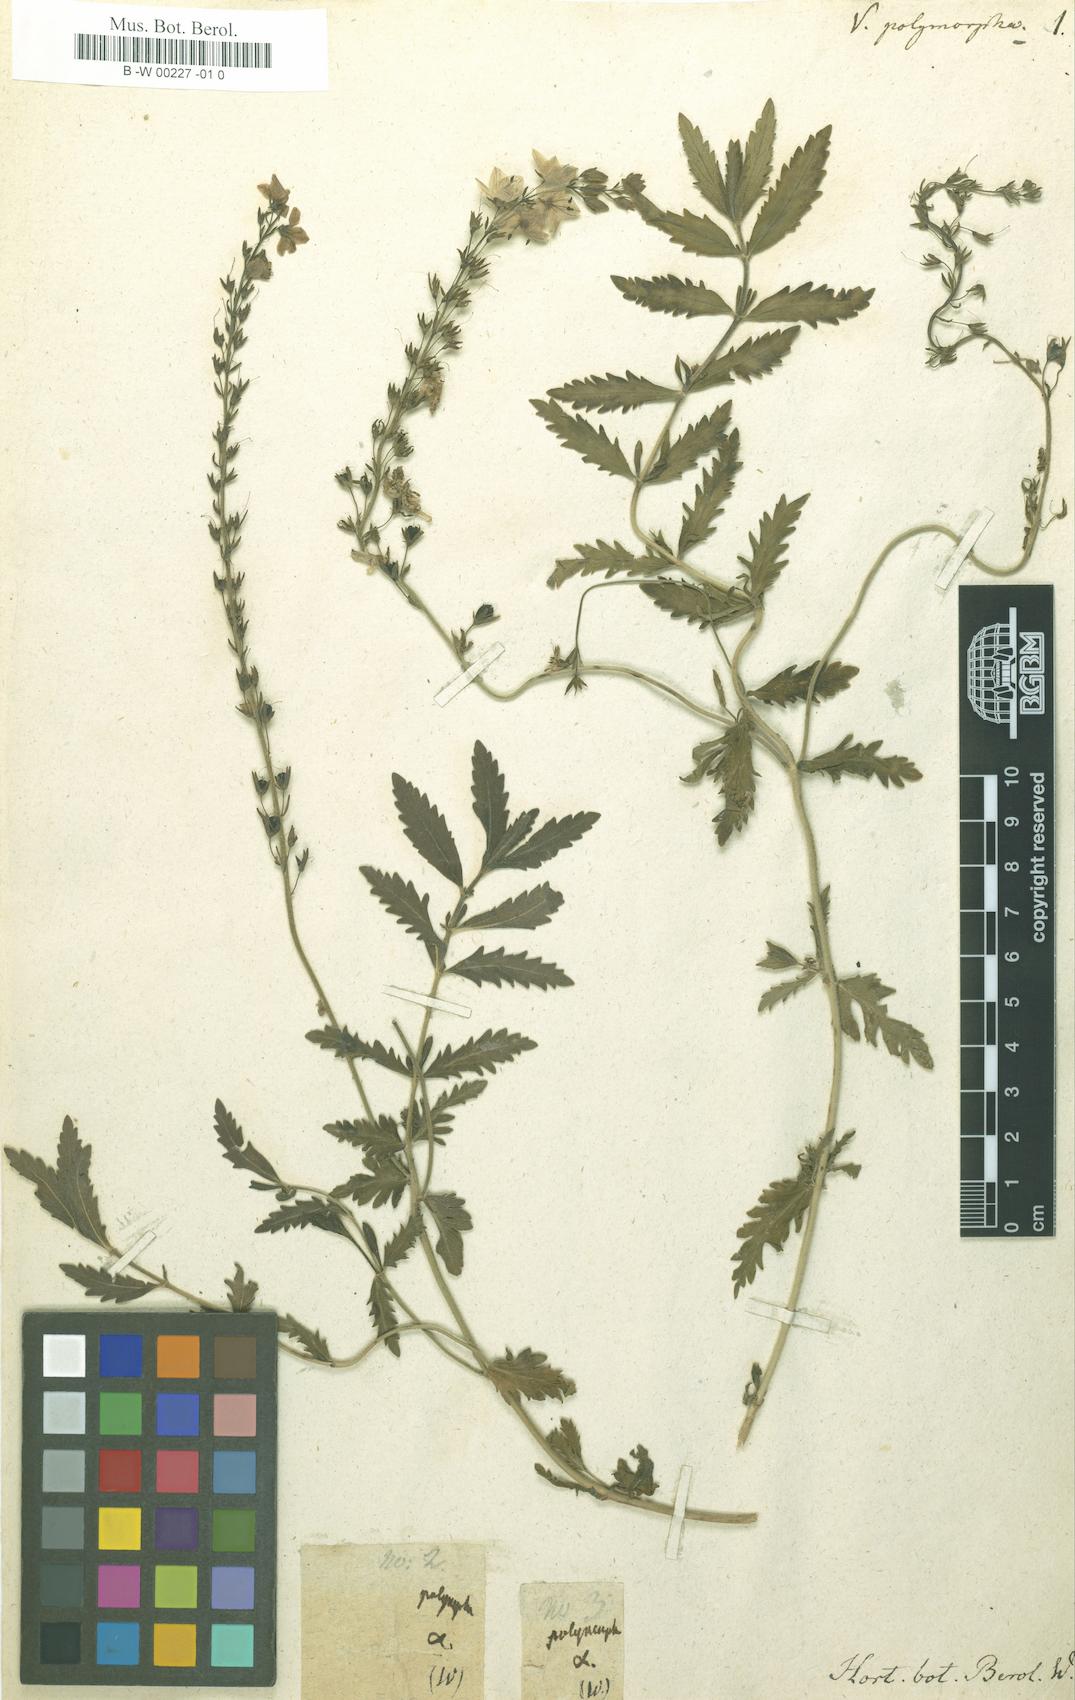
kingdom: Plantae
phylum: Tracheophyta
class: Magnoliopsida
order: Lamiales
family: Plantaginaceae
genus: Veronica
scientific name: Veronica austriaca
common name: Large speedwell
